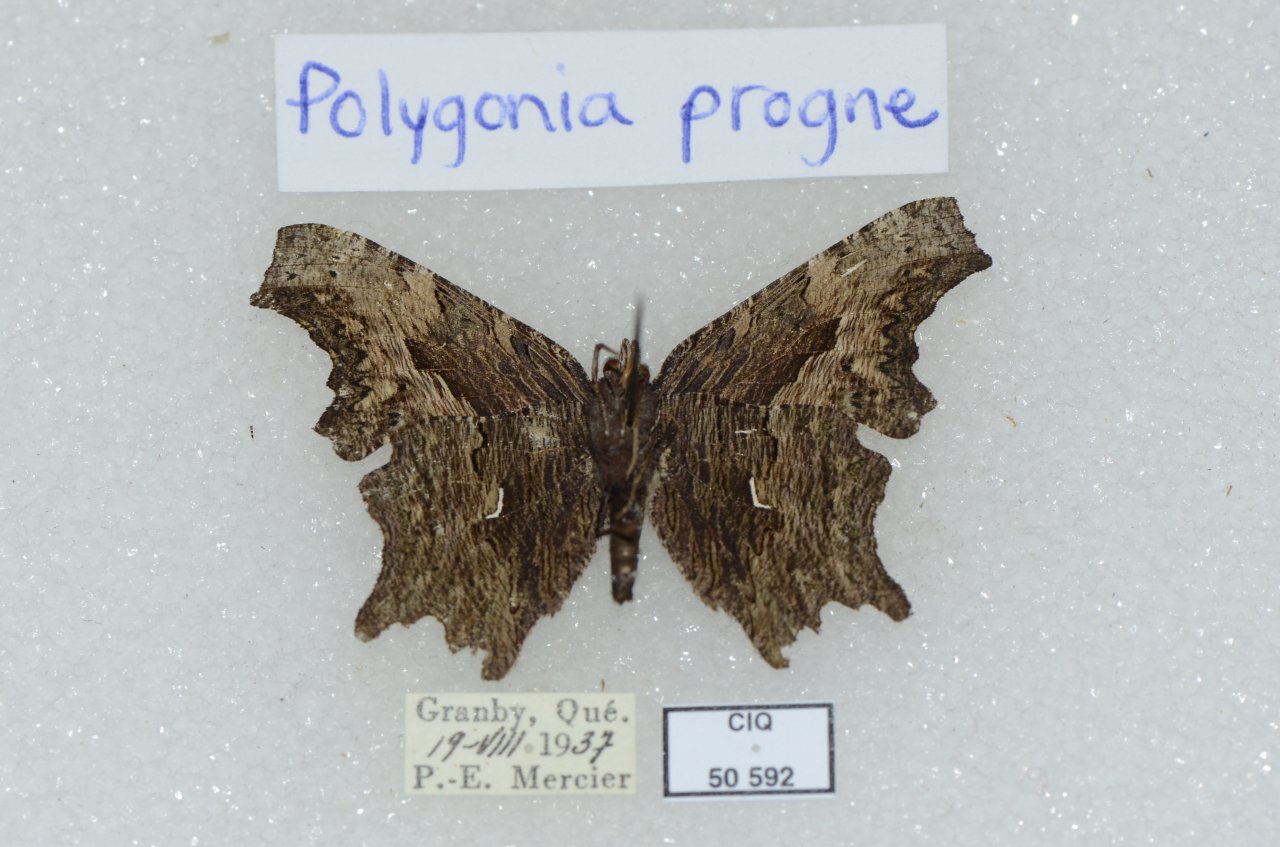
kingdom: Animalia
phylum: Arthropoda
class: Insecta
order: Lepidoptera
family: Nymphalidae
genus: Polygonia
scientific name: Polygonia progne
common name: Gray Comma
